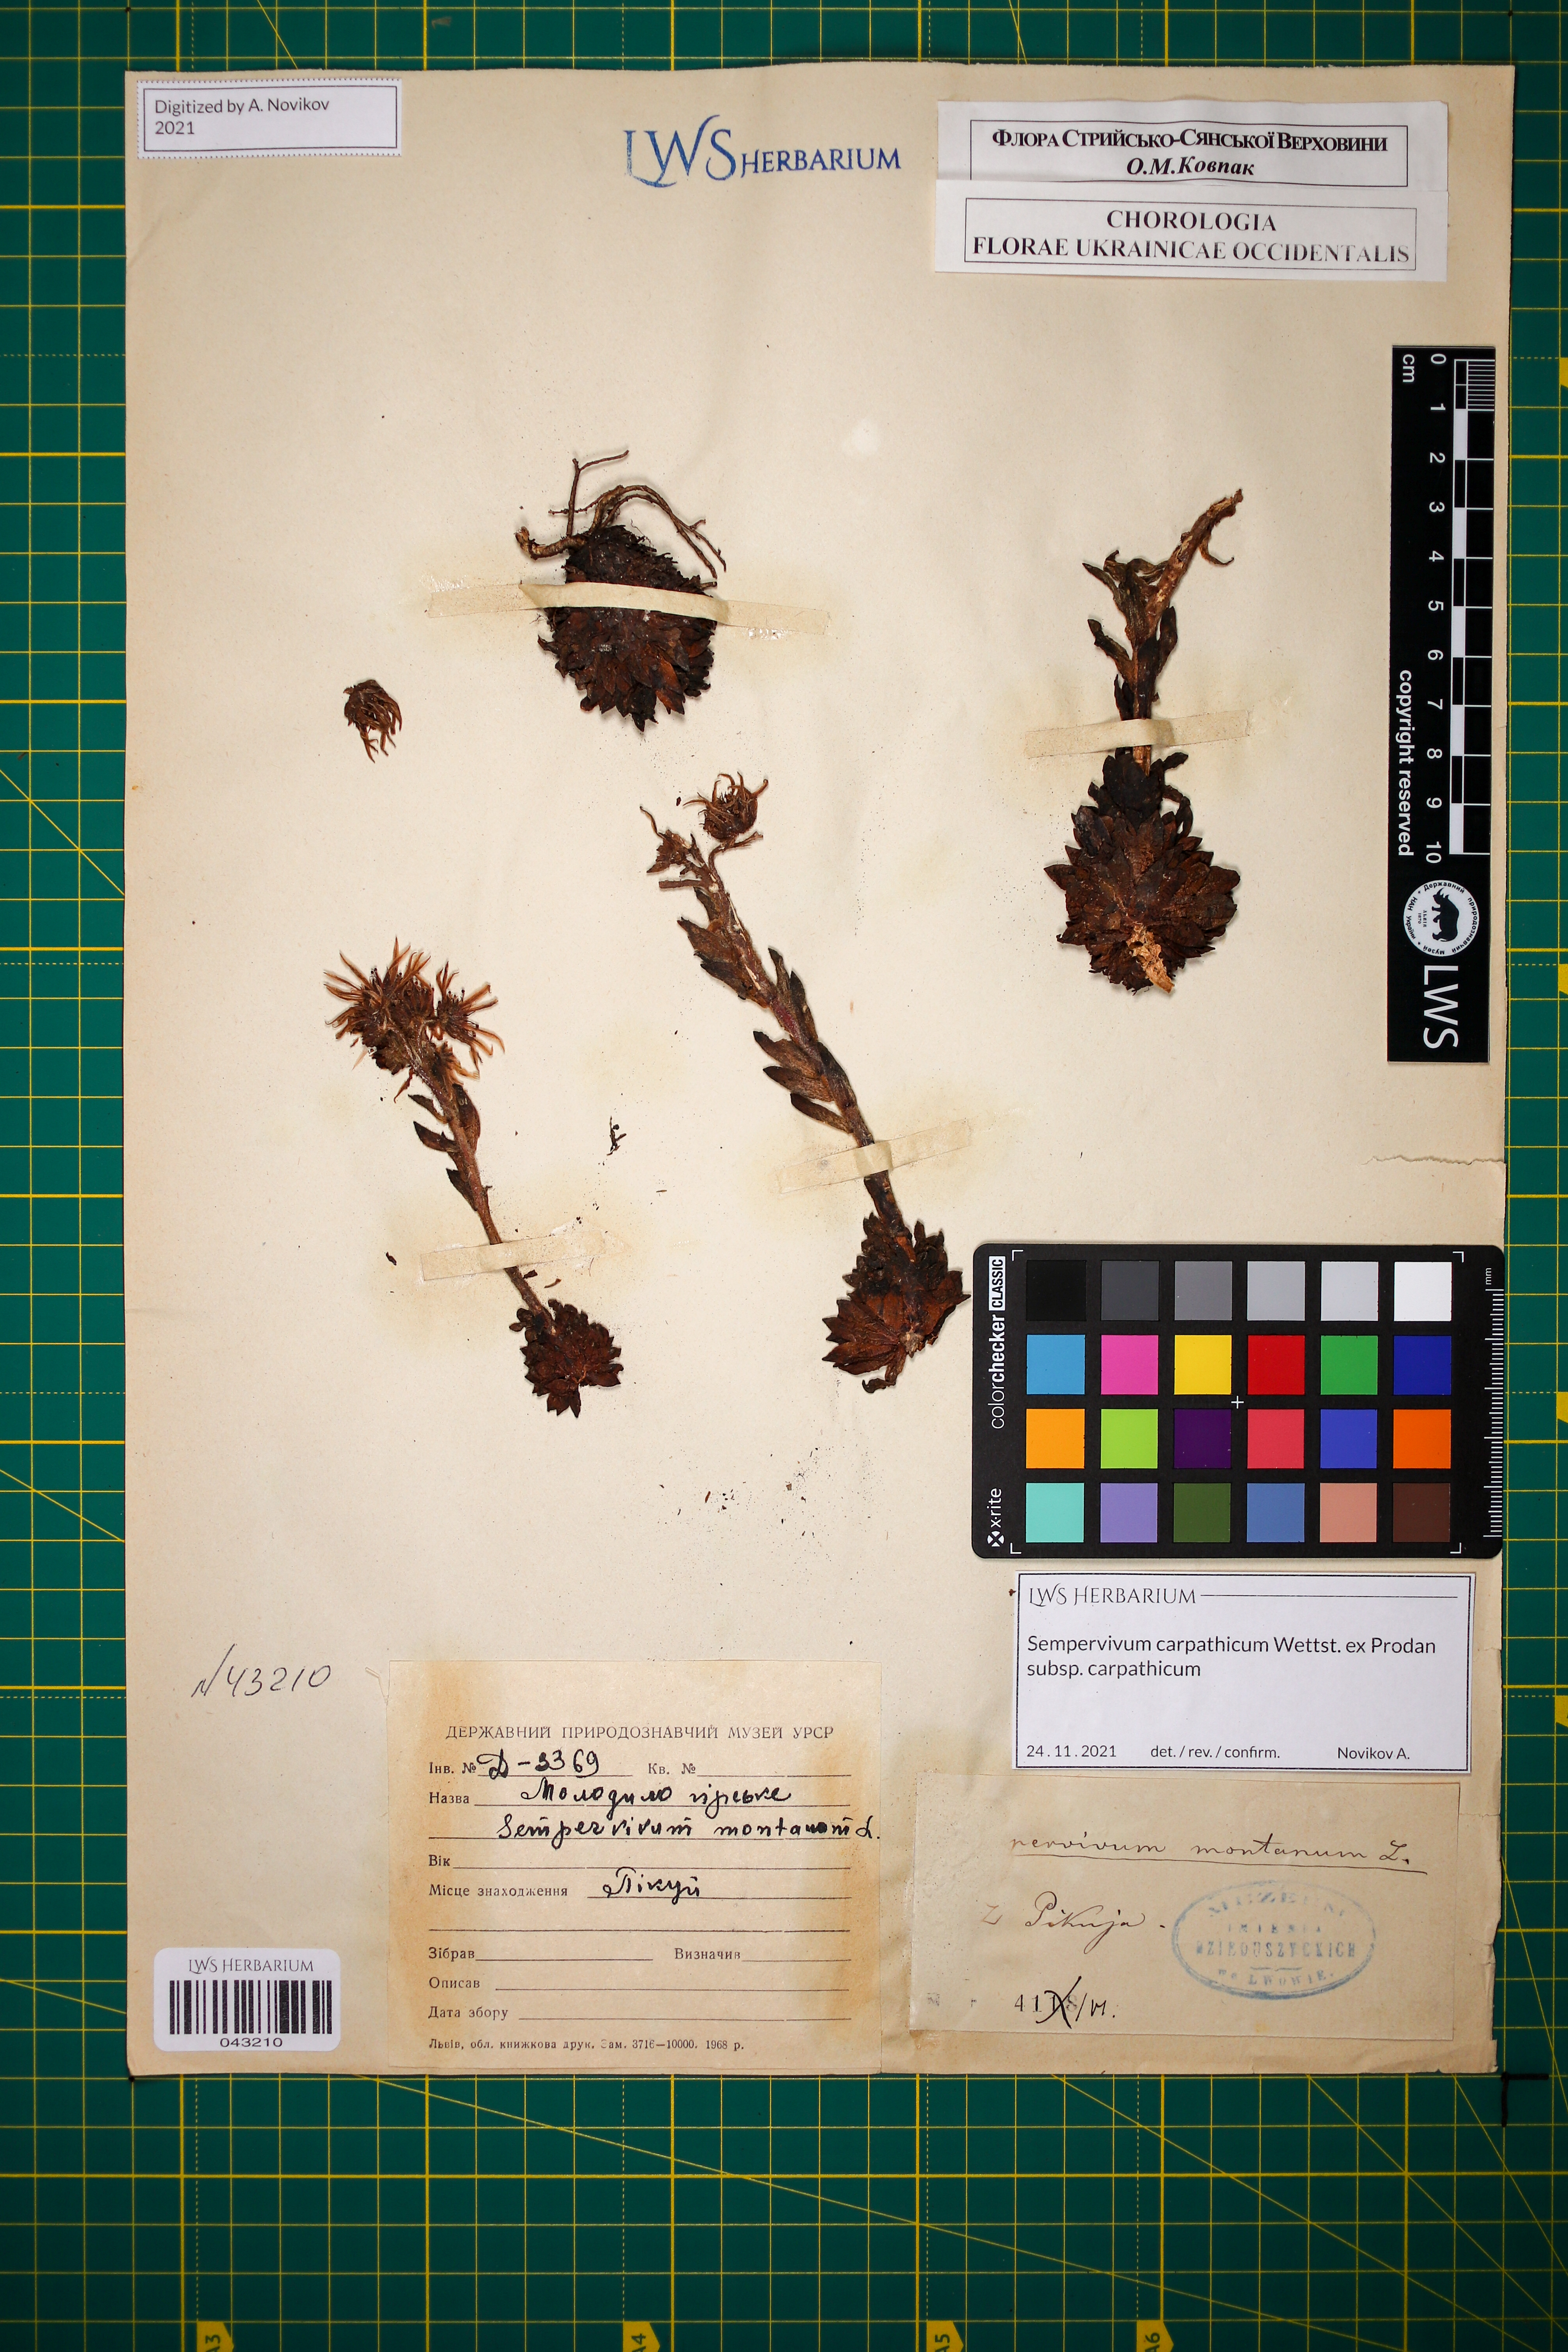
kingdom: Plantae
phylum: Tracheophyta
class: Magnoliopsida
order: Saxifragales
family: Crassulaceae
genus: Sempervivum
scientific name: Sempervivum montanum
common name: Mountain house-leek
